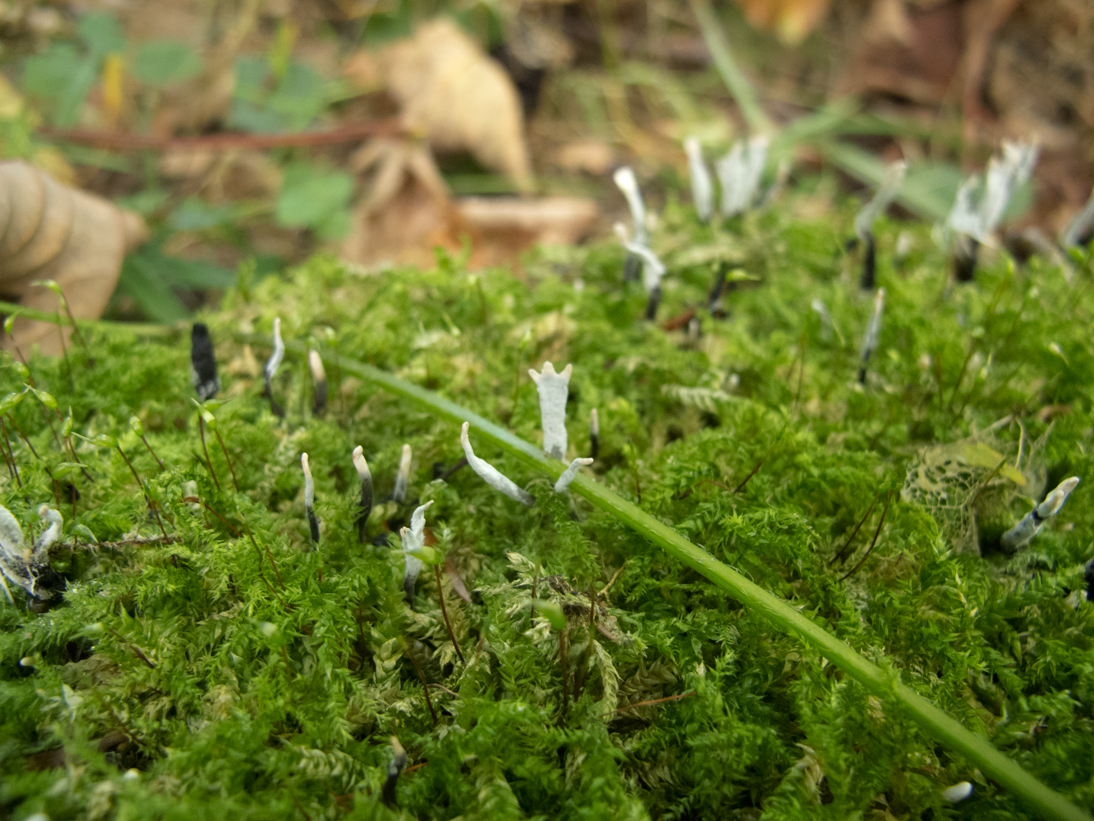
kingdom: Fungi
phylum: Ascomycota
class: Sordariomycetes
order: Xylariales
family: Xylariaceae
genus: Xylaria
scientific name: Xylaria hypoxylon
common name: grenet stødsvamp
